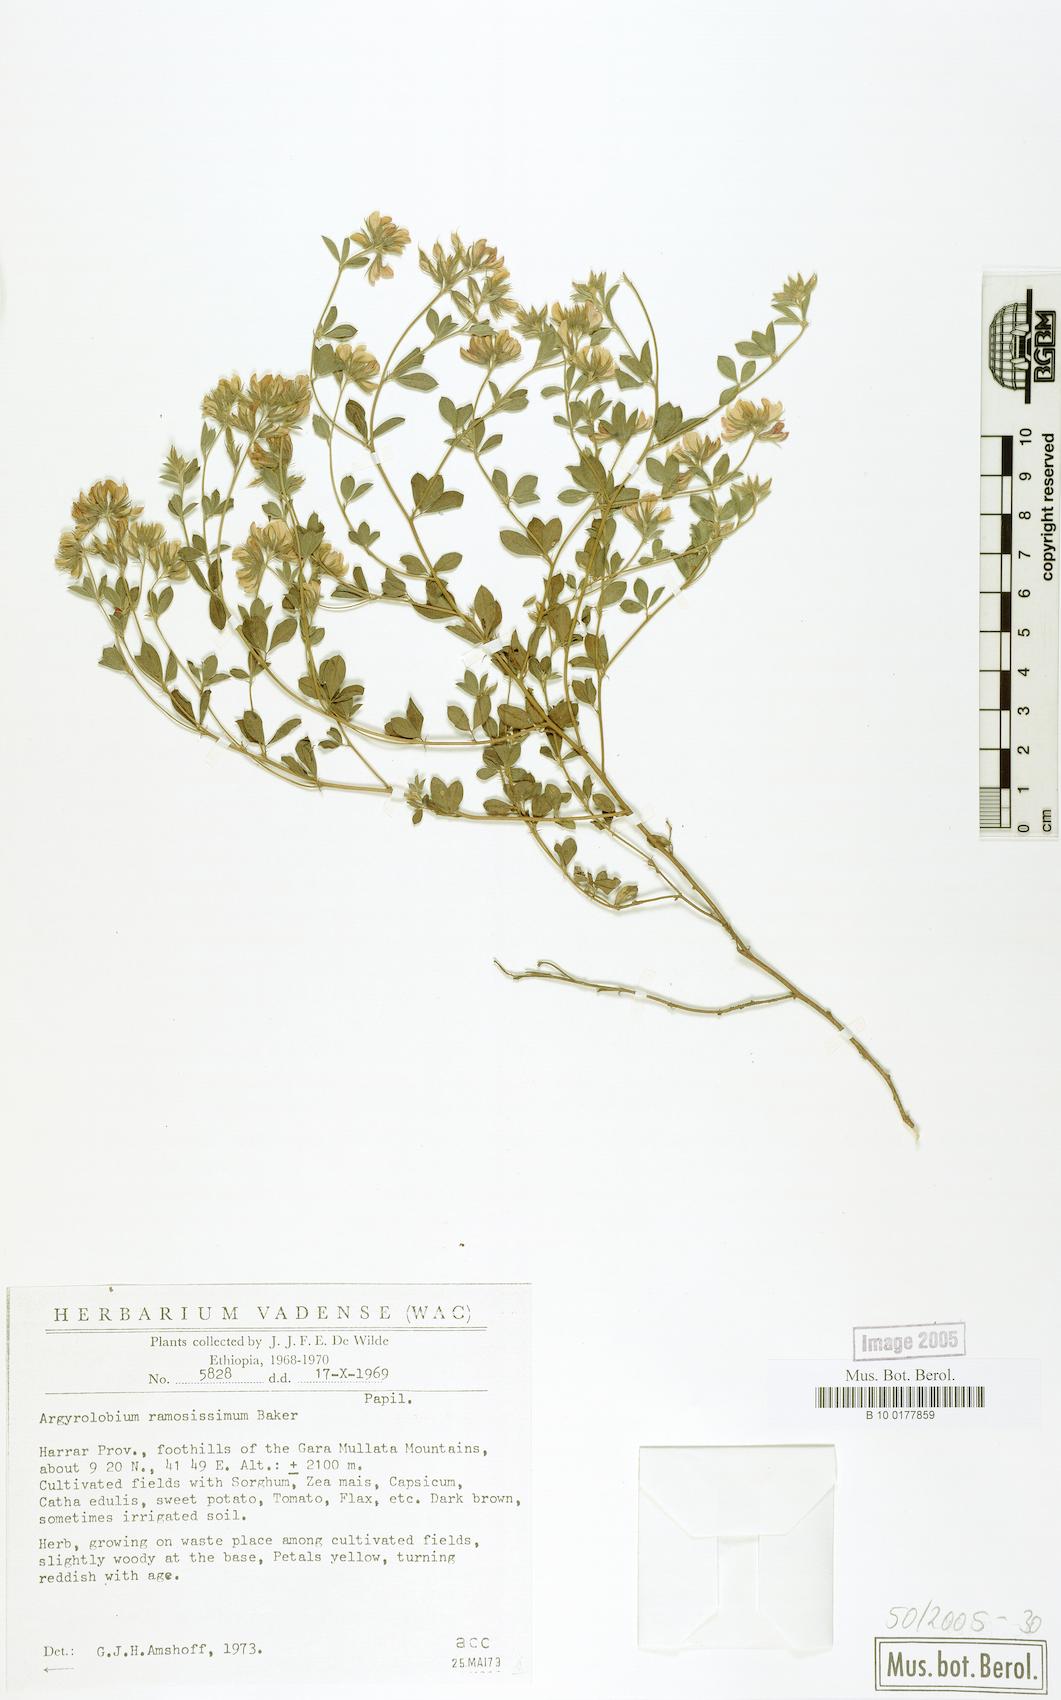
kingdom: Plantae
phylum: Tracheophyta
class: Magnoliopsida
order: Fabales
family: Fabaceae
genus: Argyrolobium
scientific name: Argyrolobium ramosissimum
